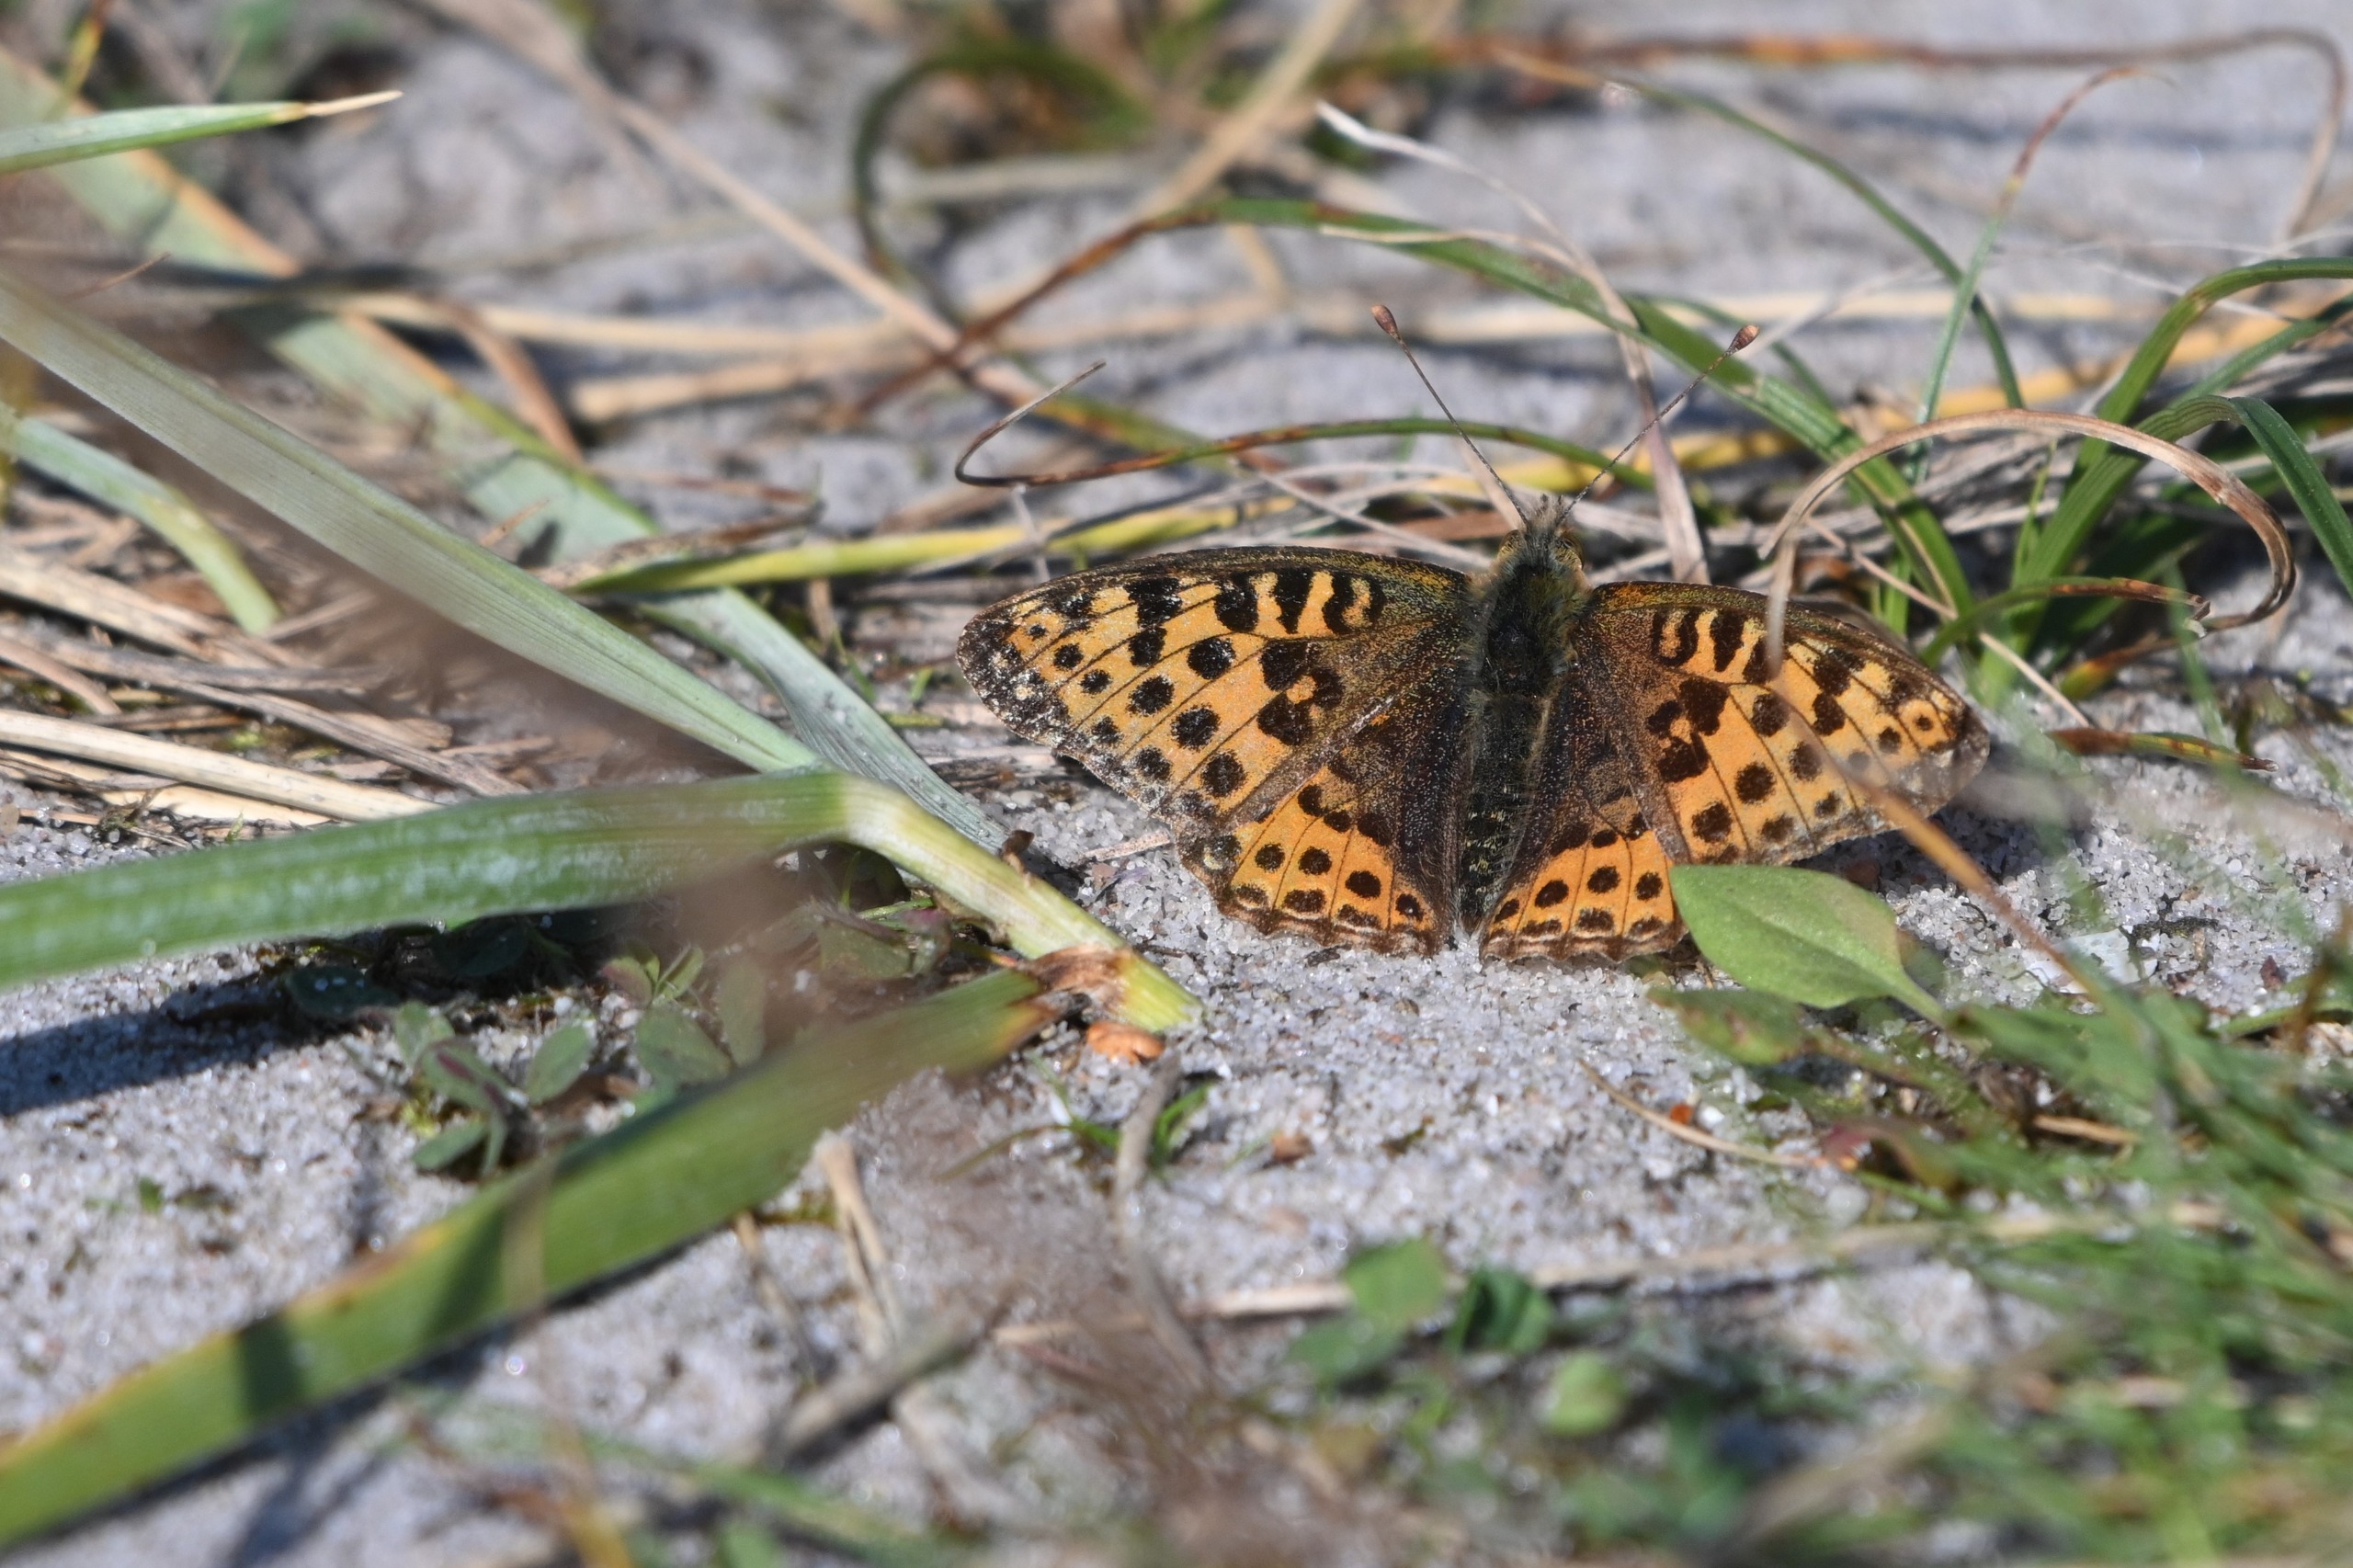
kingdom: Animalia
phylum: Arthropoda
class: Insecta
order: Lepidoptera
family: Nymphalidae
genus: Issoria
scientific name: Issoria lathonia
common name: Storplettet perlemorsommerfugl
